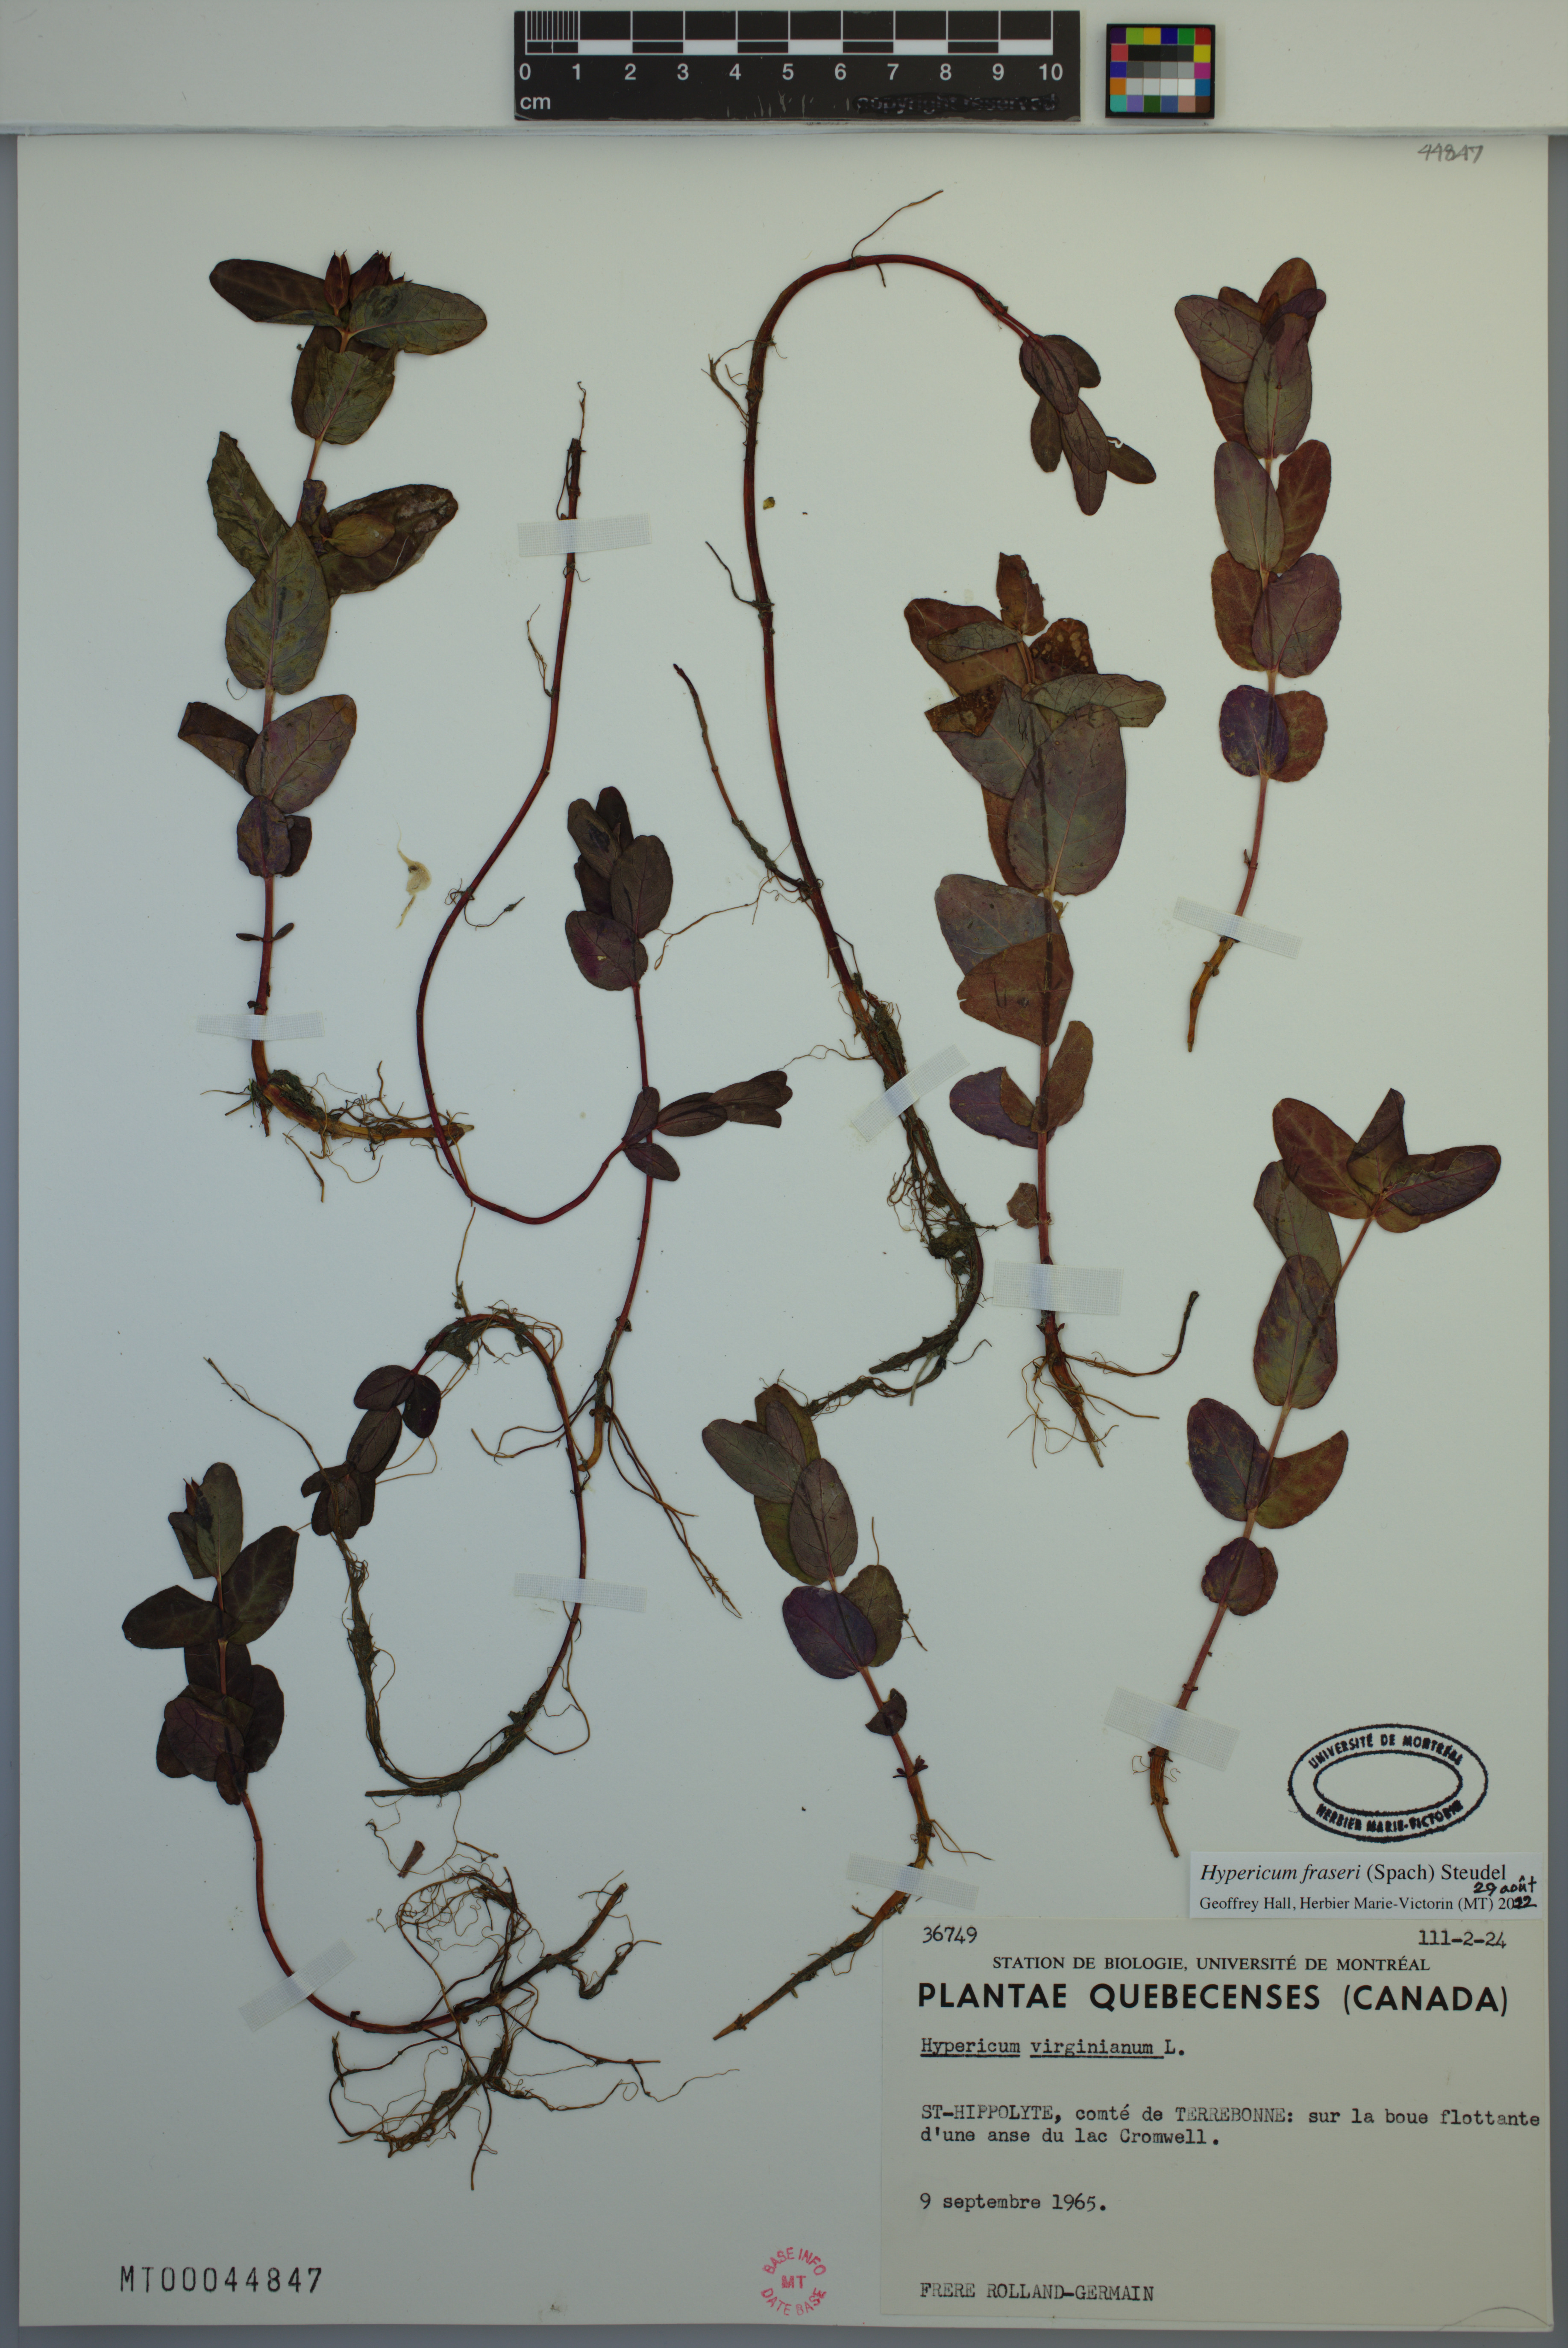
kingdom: Plantae
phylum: Tracheophyta
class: Magnoliopsida
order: Malpighiales
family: Hypericaceae
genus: Triadenum
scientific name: Triadenum fraseri
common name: Fraser's marsh st. johnswort
